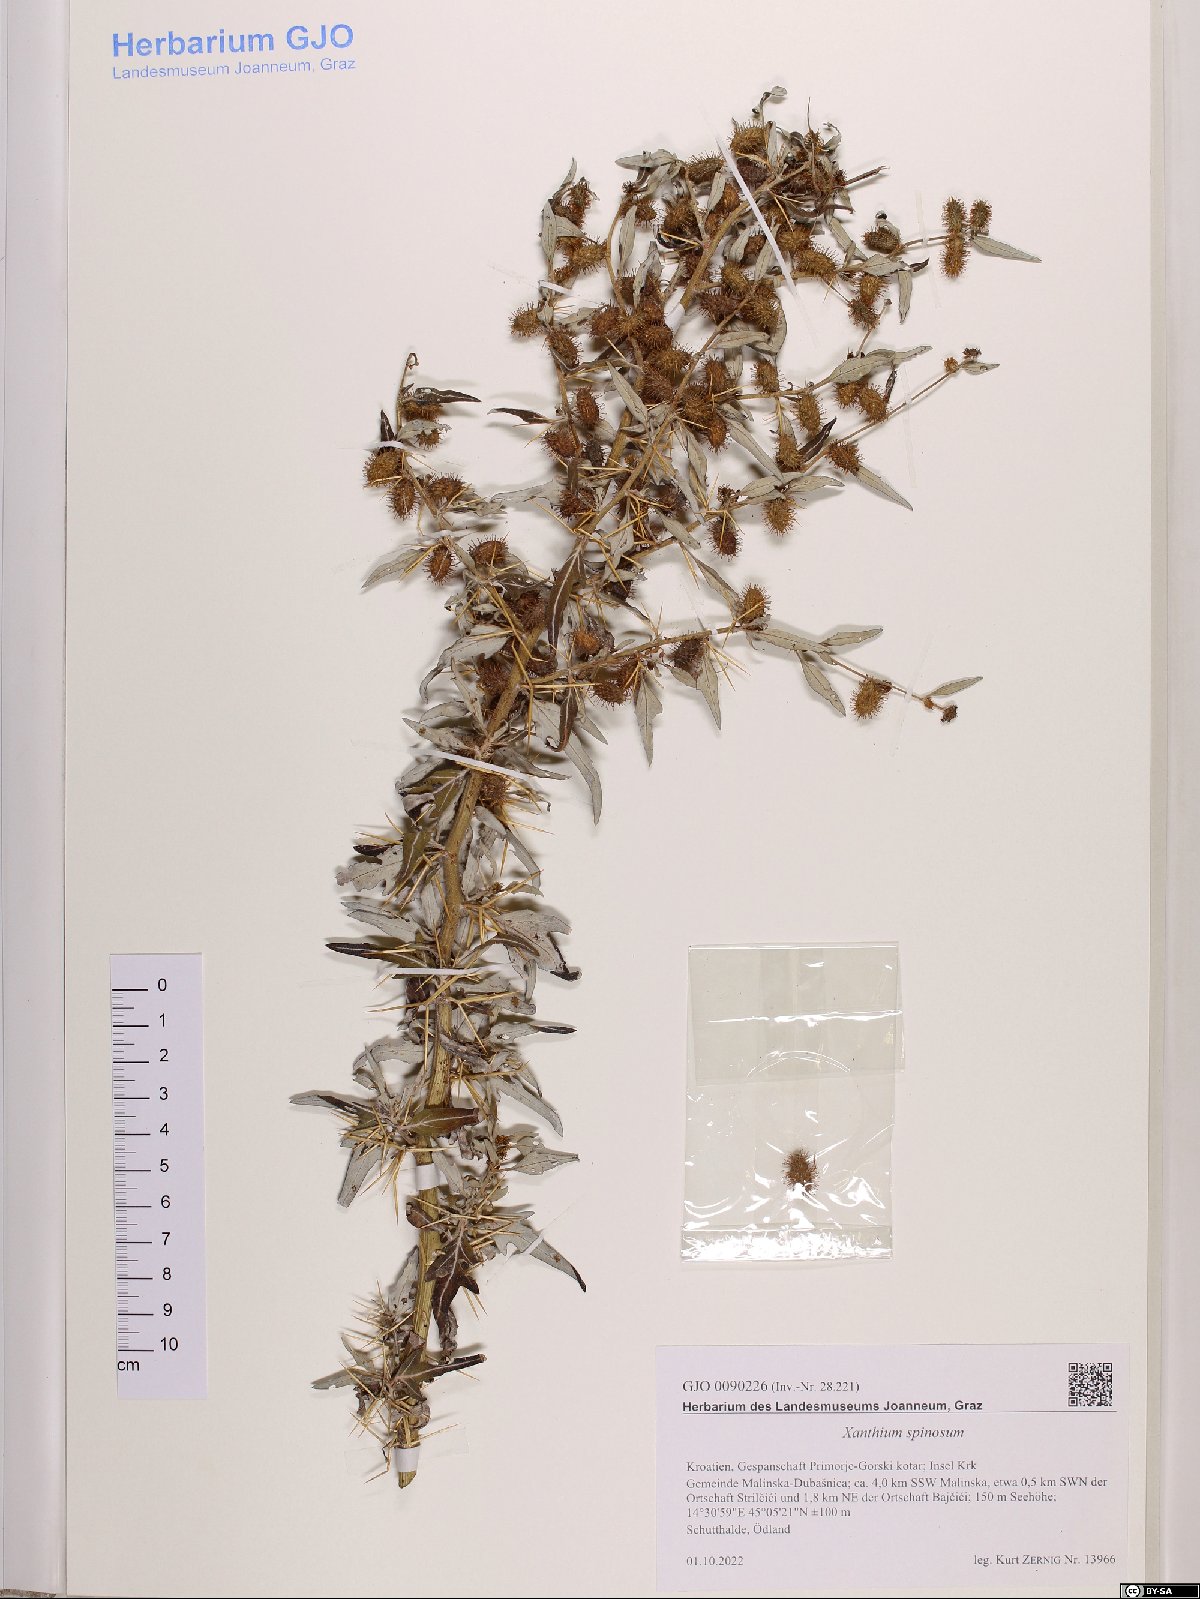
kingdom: Plantae
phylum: Tracheophyta
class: Magnoliopsida
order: Asterales
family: Asteraceae
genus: Xanthium
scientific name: Xanthium spinosum
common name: Spiny cocklebur
